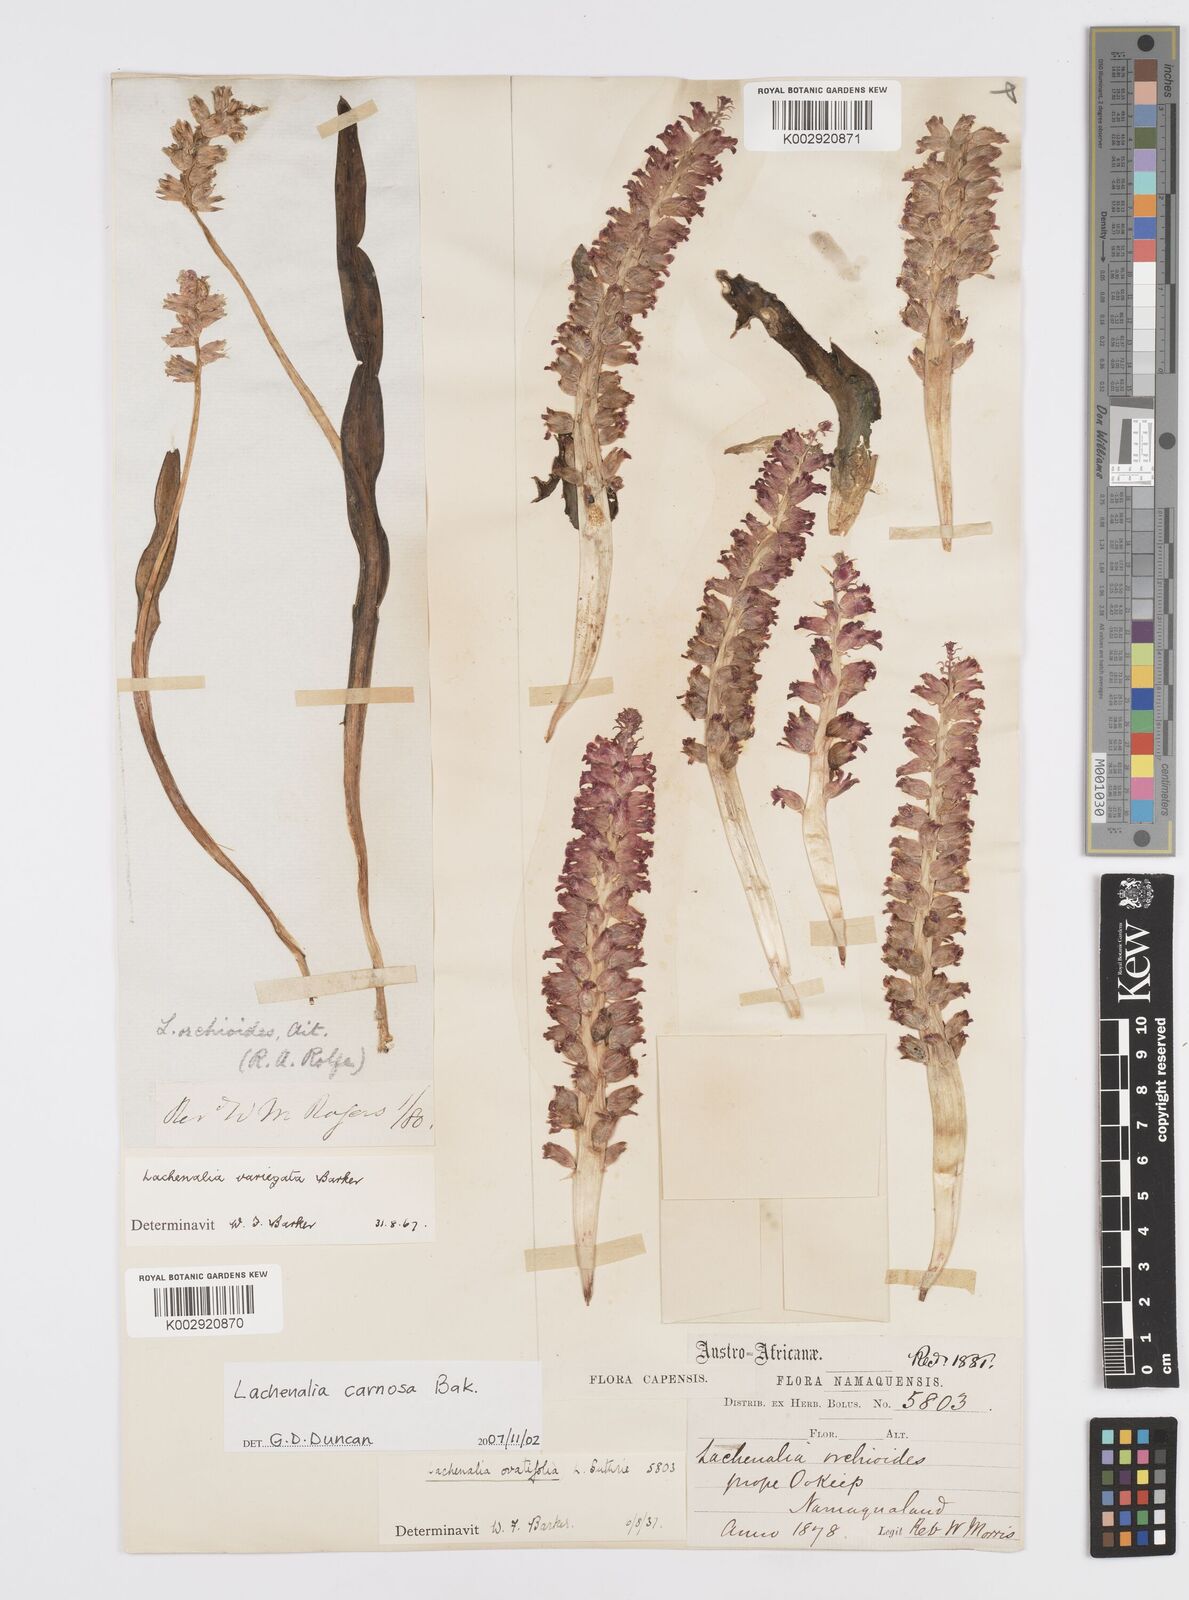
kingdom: Plantae
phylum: Tracheophyta
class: Liliopsida
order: Asparagales
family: Asparagaceae
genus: Lachenalia
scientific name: Lachenalia carnosa
